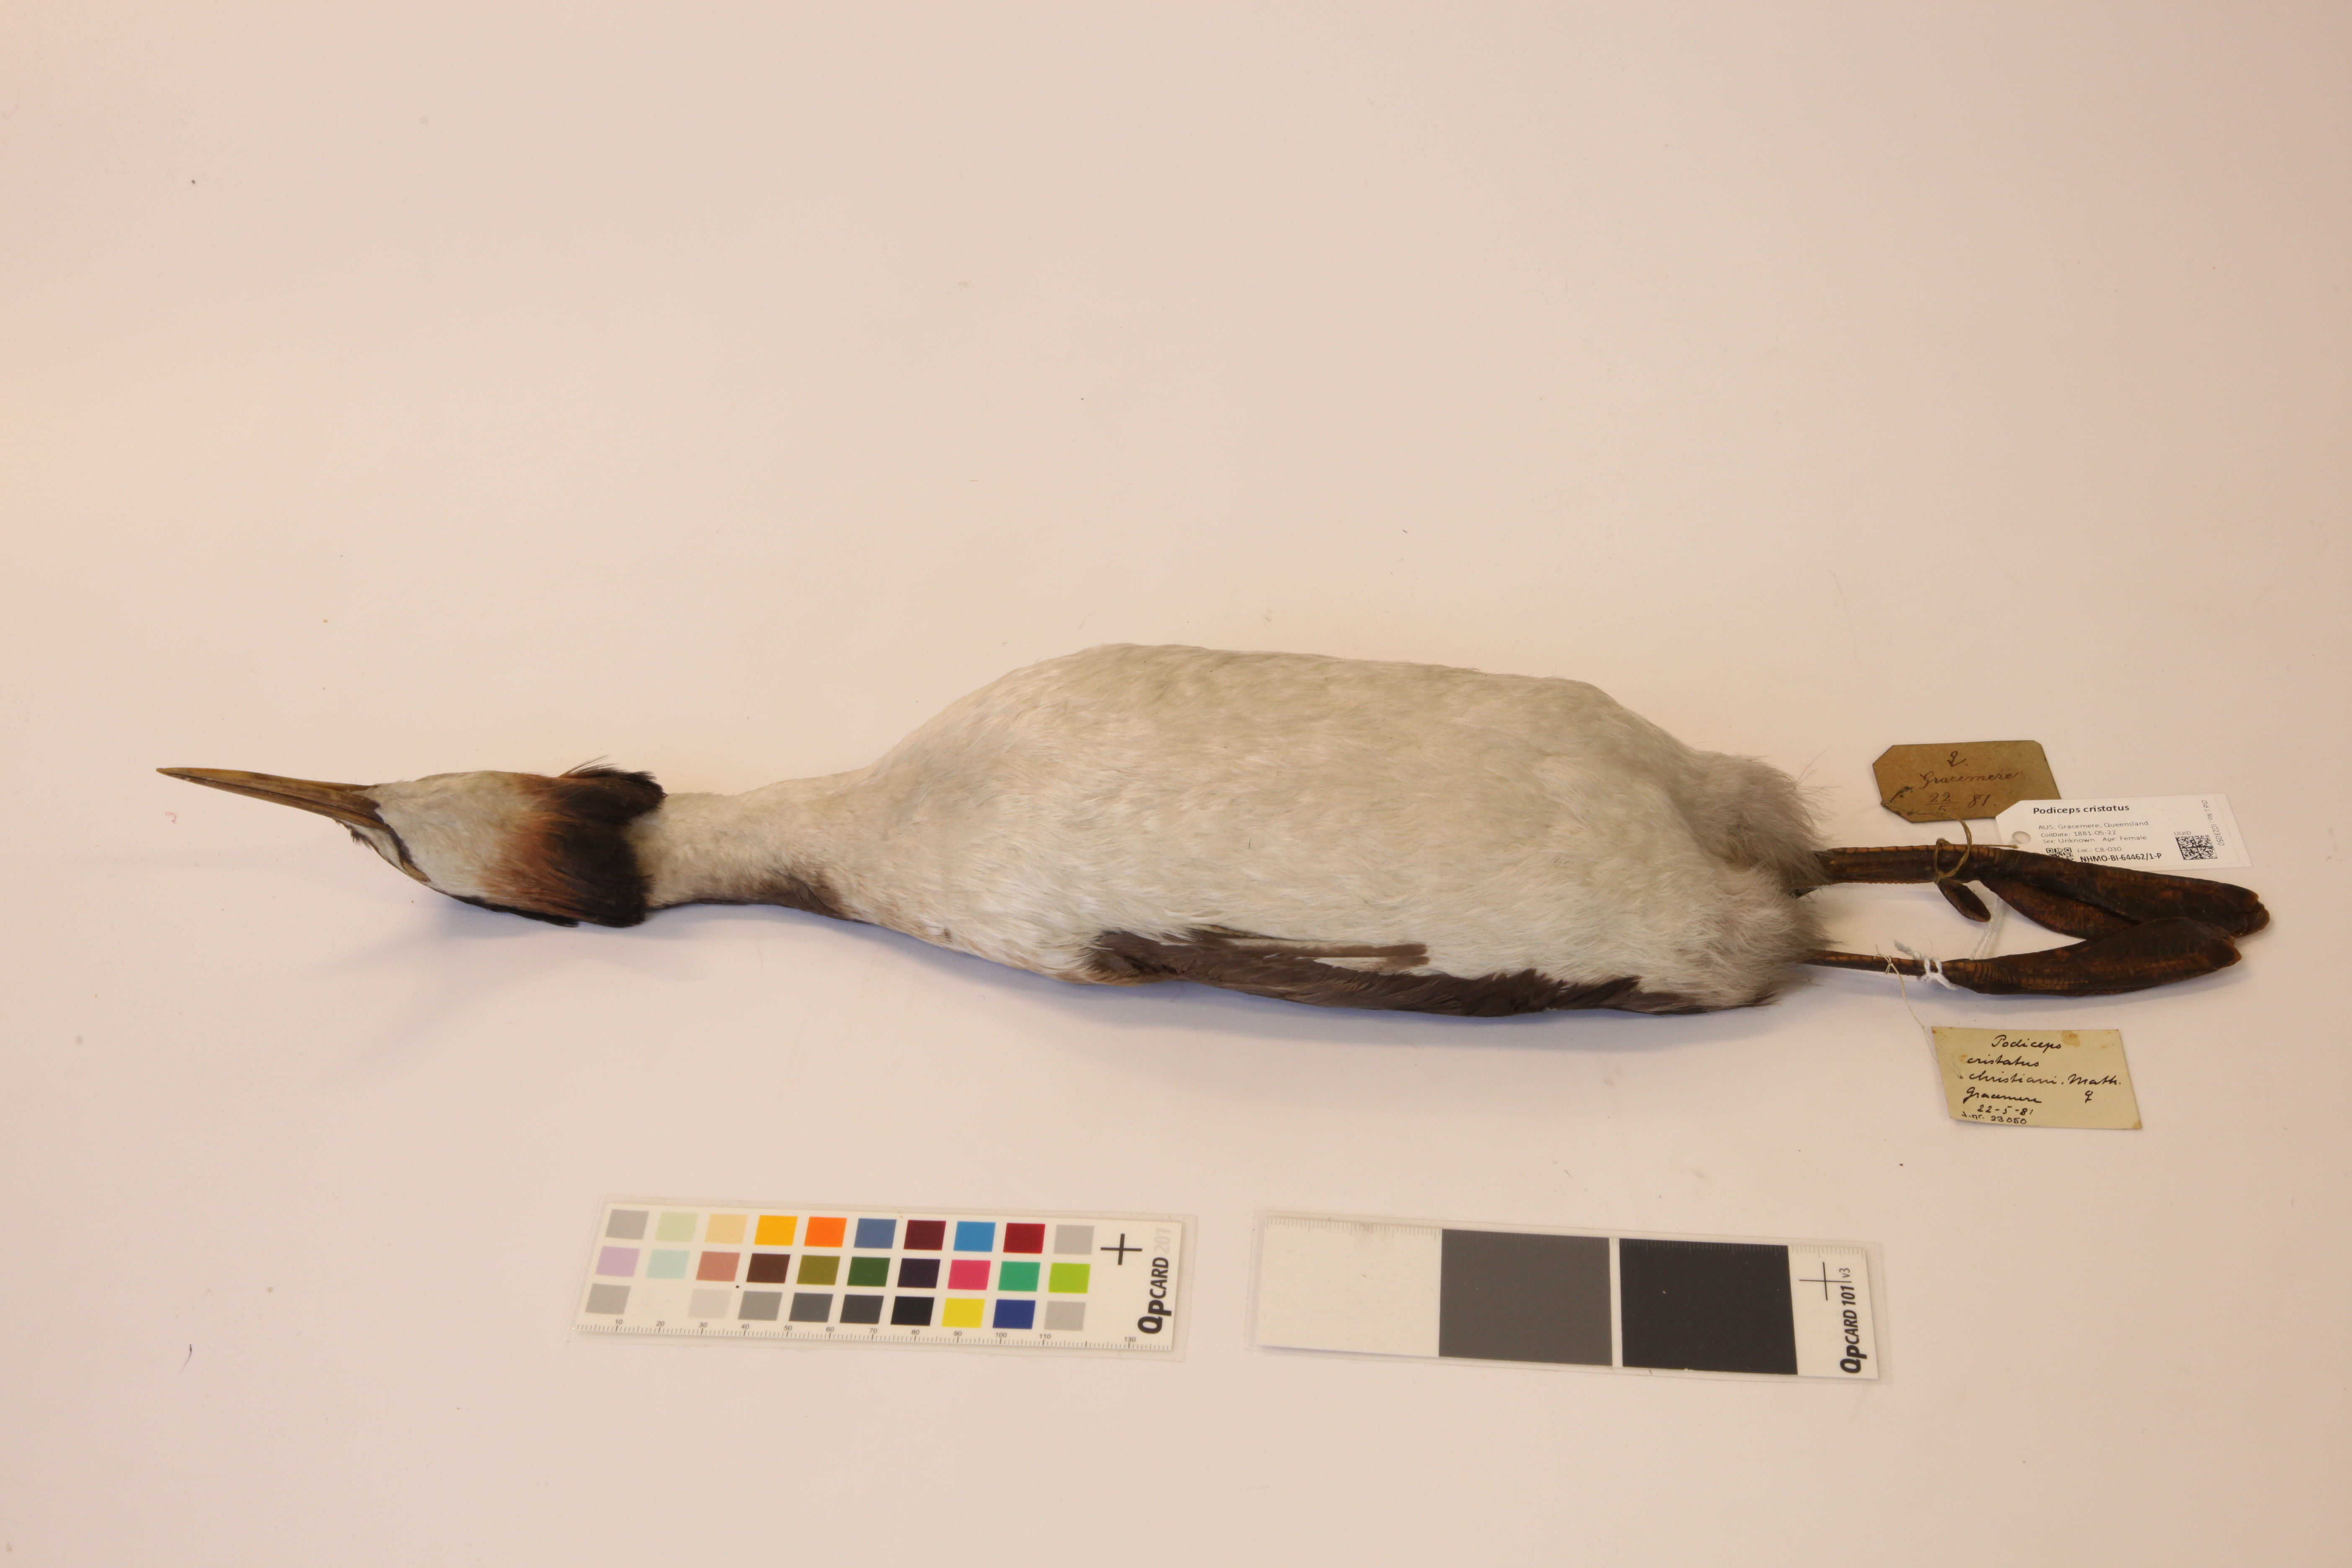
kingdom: Animalia
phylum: Chordata
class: Aves
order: Podicipediformes
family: Podicipedidae
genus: Podiceps
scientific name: Podiceps cristatus
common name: Great crested grebe
